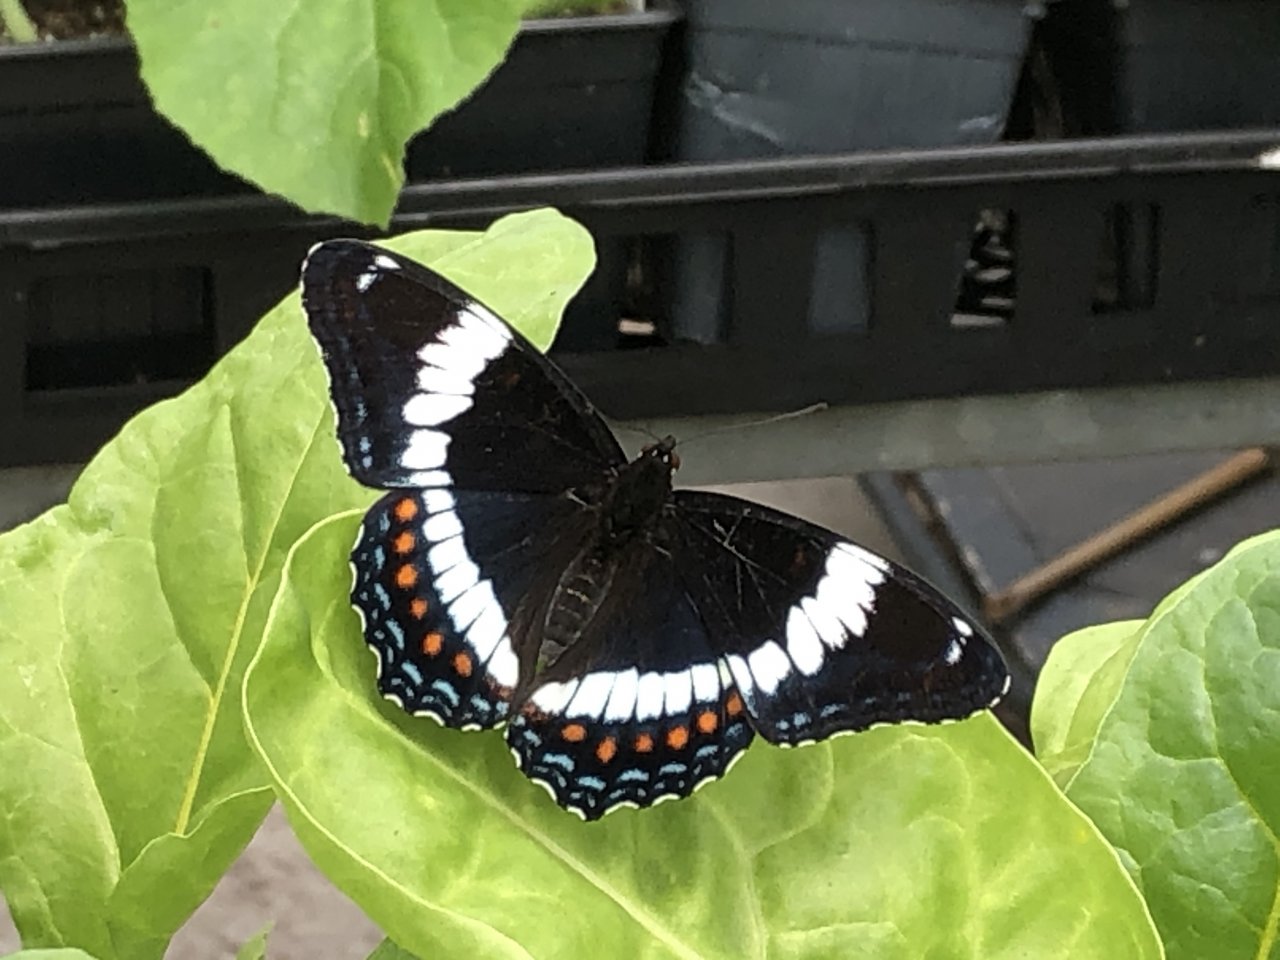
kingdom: Animalia
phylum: Arthropoda
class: Insecta
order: Lepidoptera
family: Nymphalidae
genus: Limenitis
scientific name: Limenitis arthemis
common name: Red-spotted Admiral
